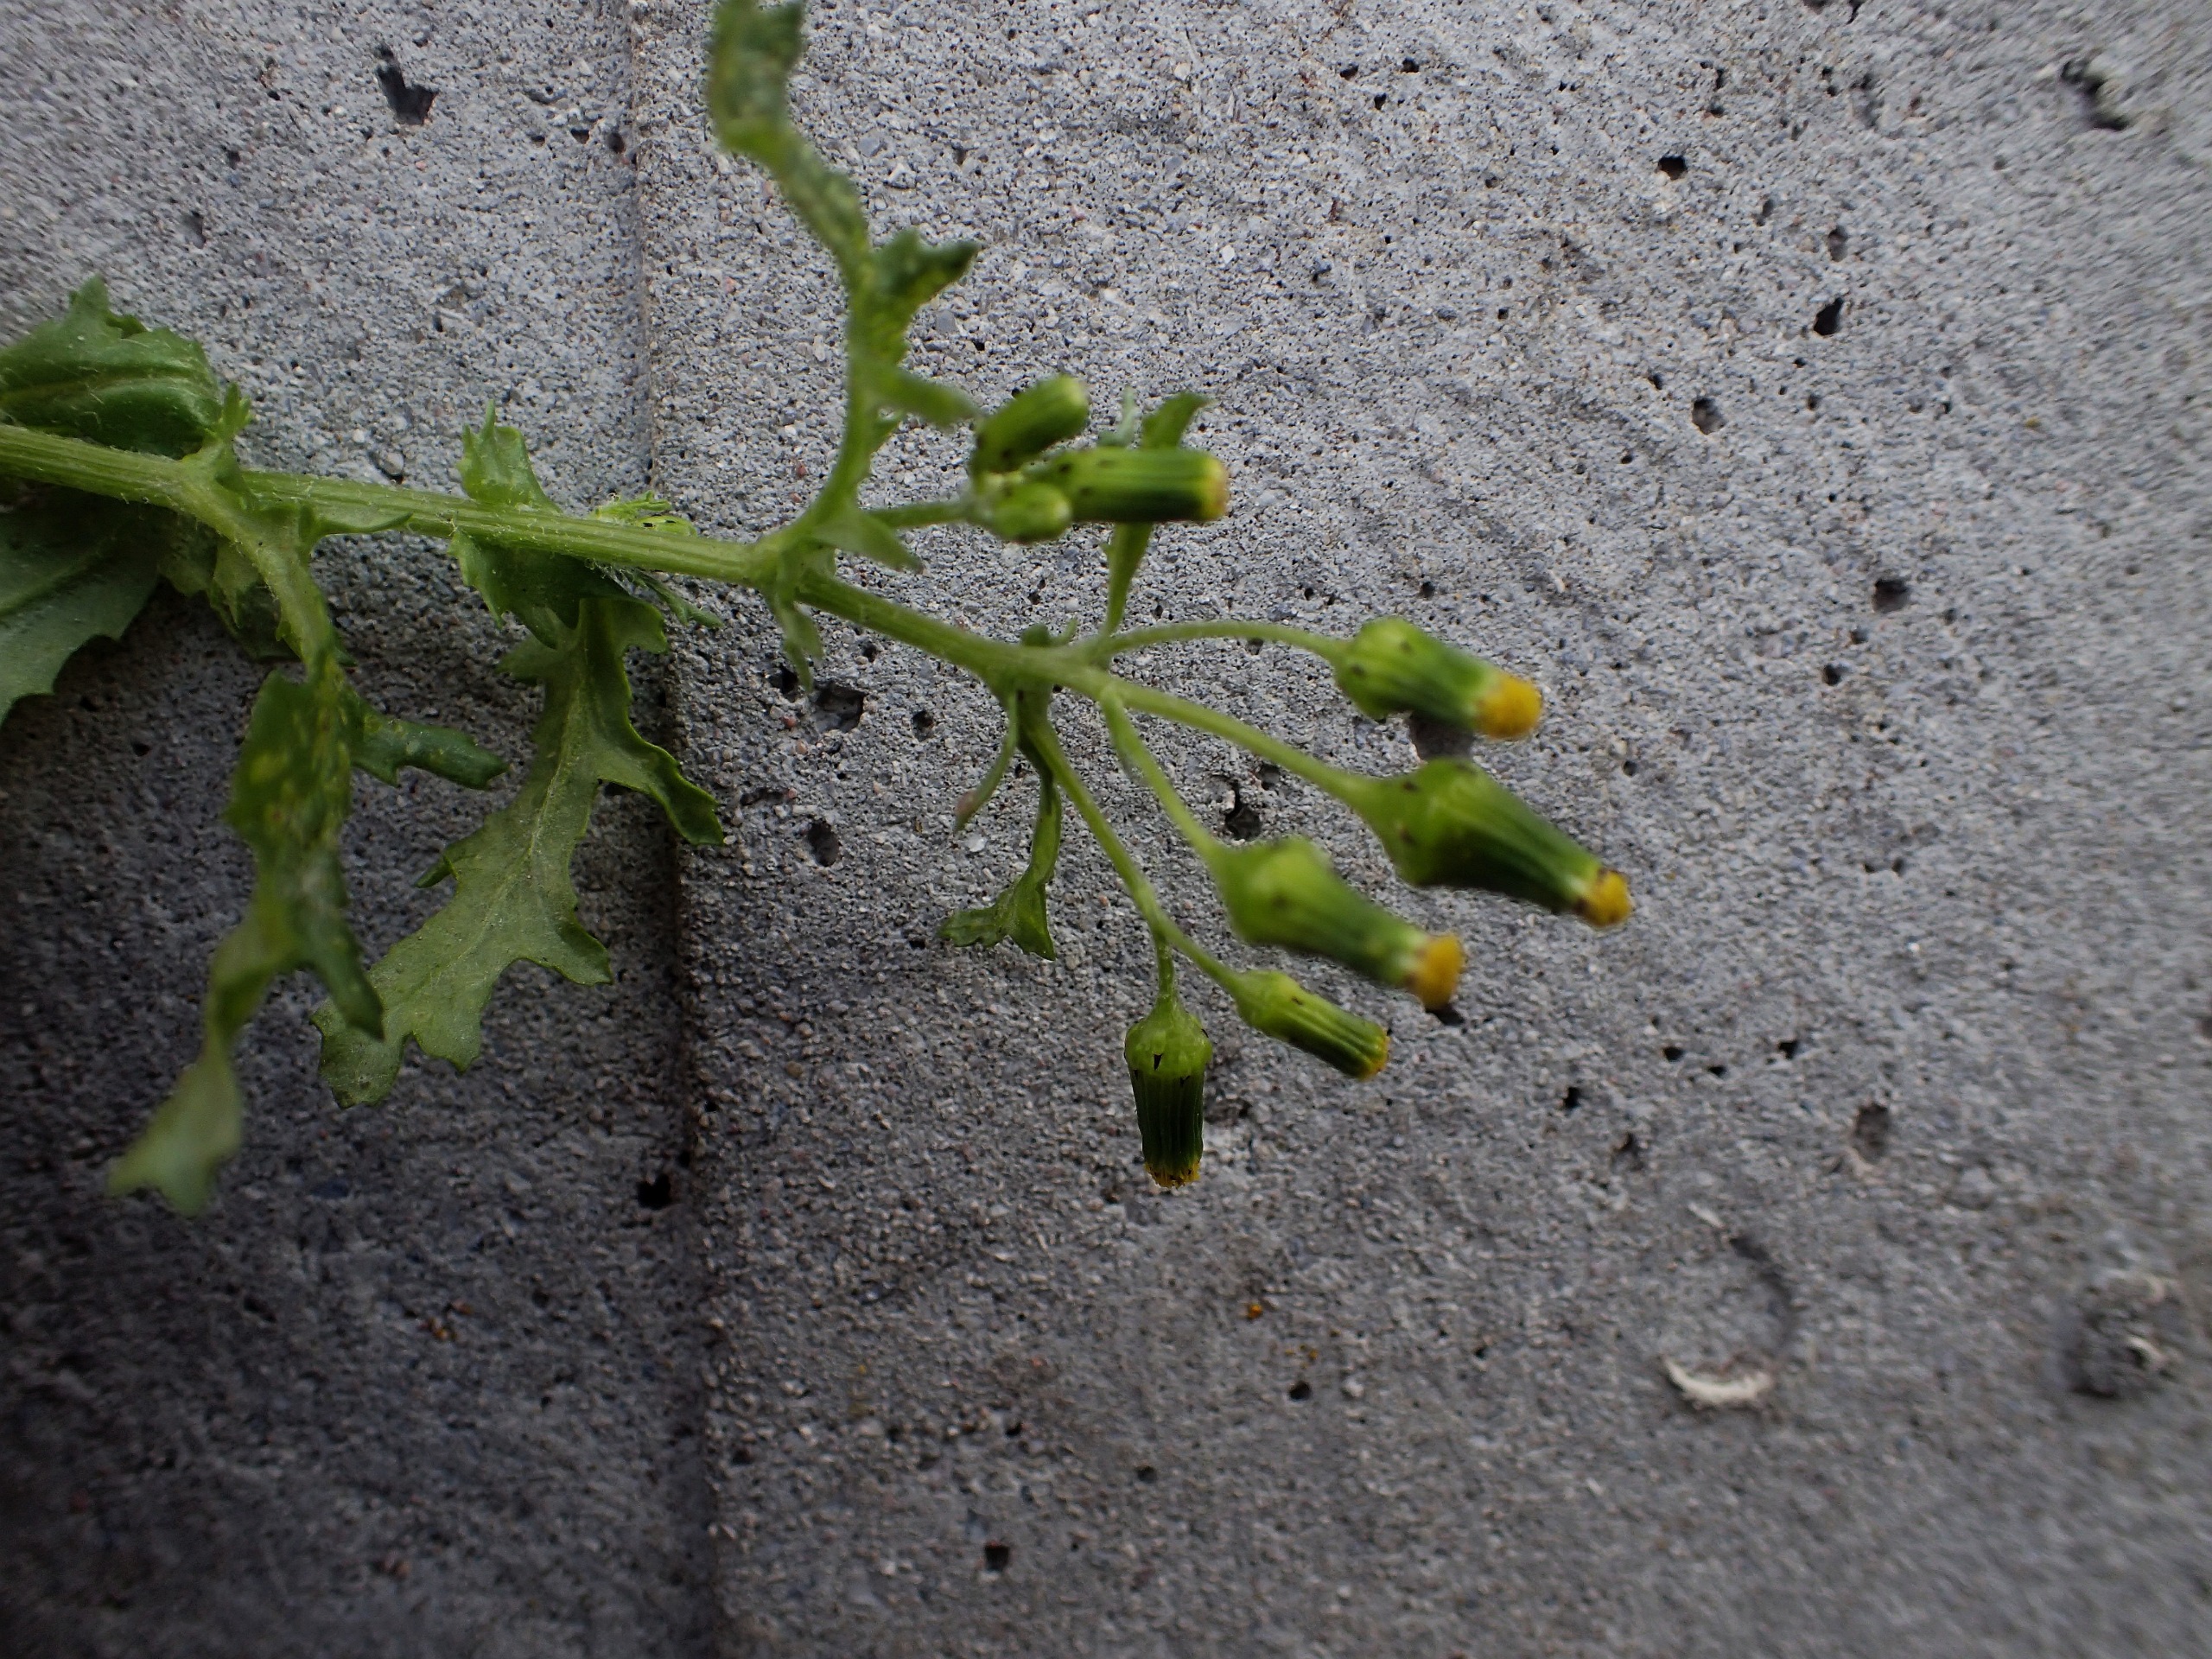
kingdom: Plantae
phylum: Tracheophyta
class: Magnoliopsida
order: Asterales
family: Asteraceae
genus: Senecio
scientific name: Senecio vulgaris
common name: Almindelig brandbæger
